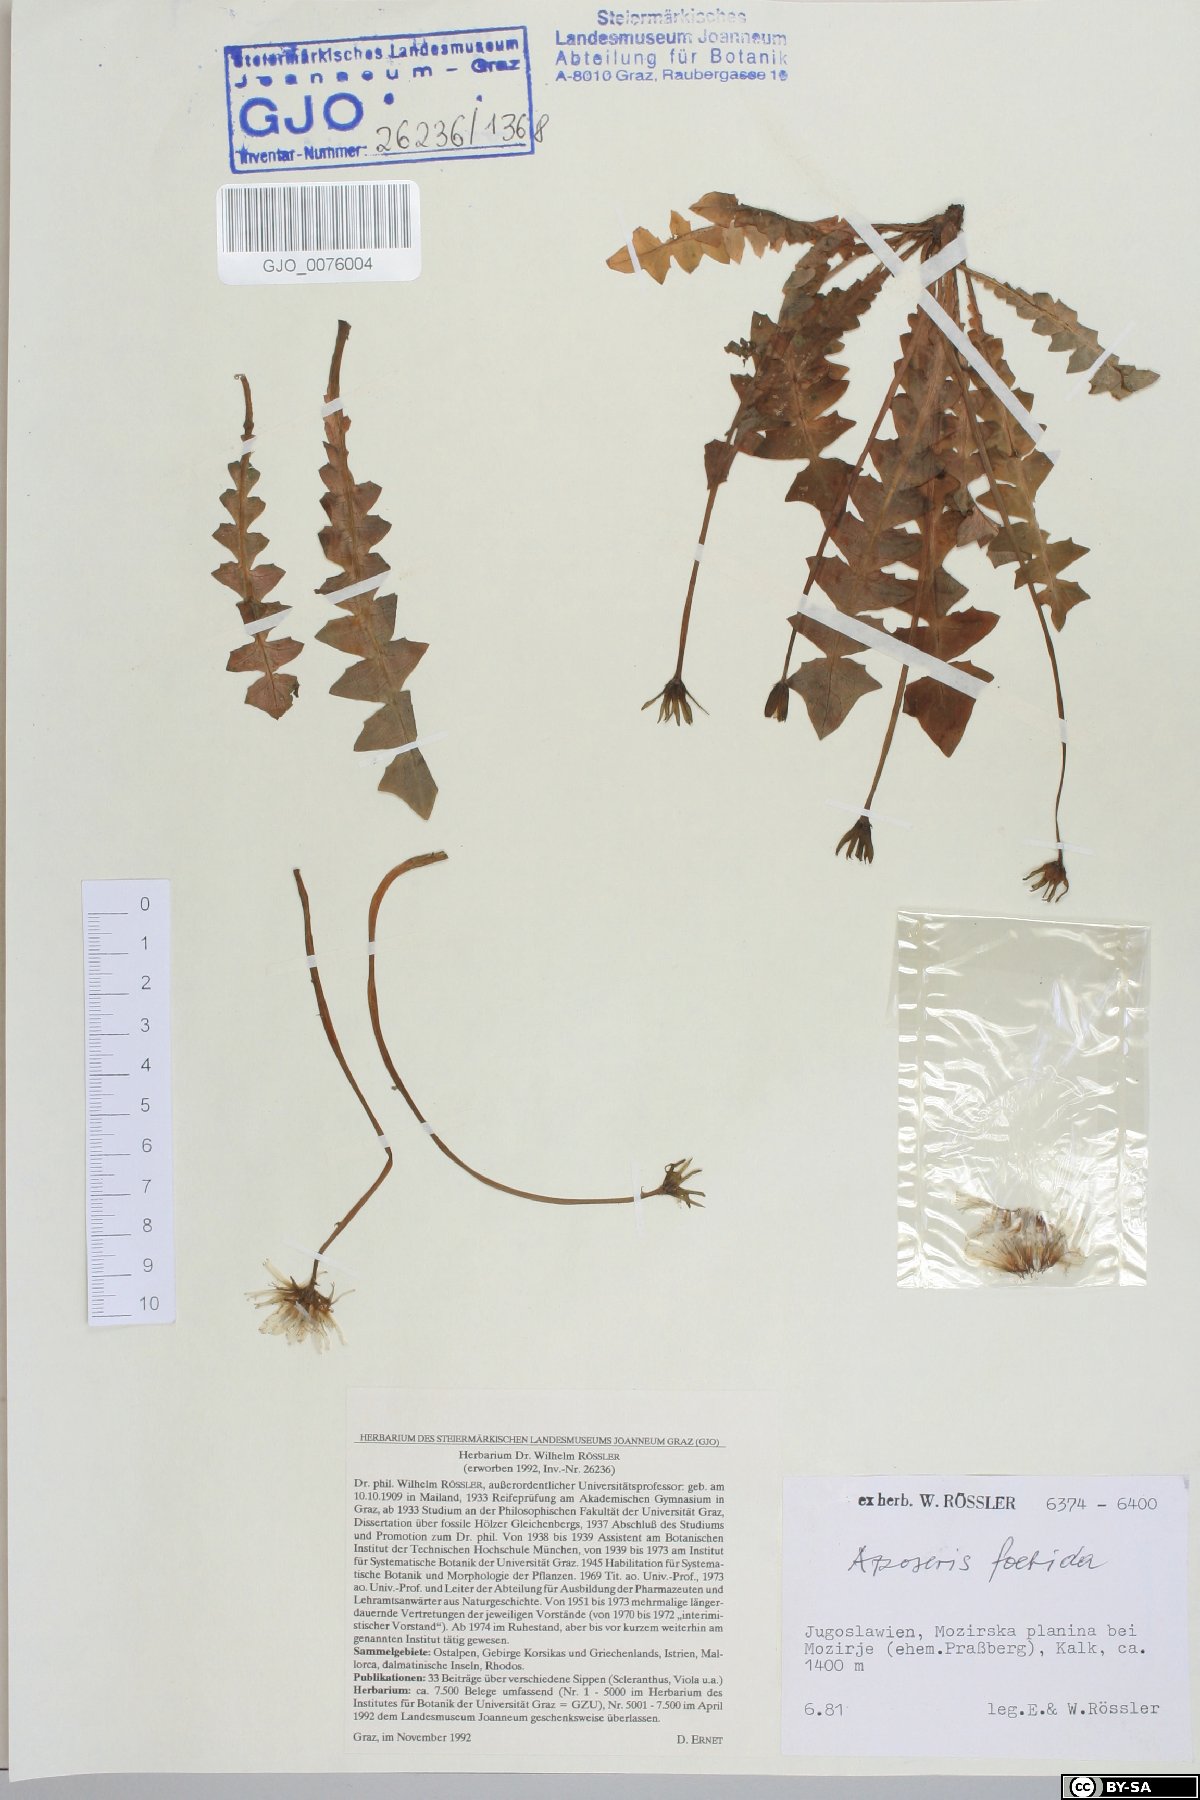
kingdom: Plantae
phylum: Tracheophyta
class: Magnoliopsida
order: Asterales
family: Asteraceae
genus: Aposeris
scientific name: Aposeris foetida
